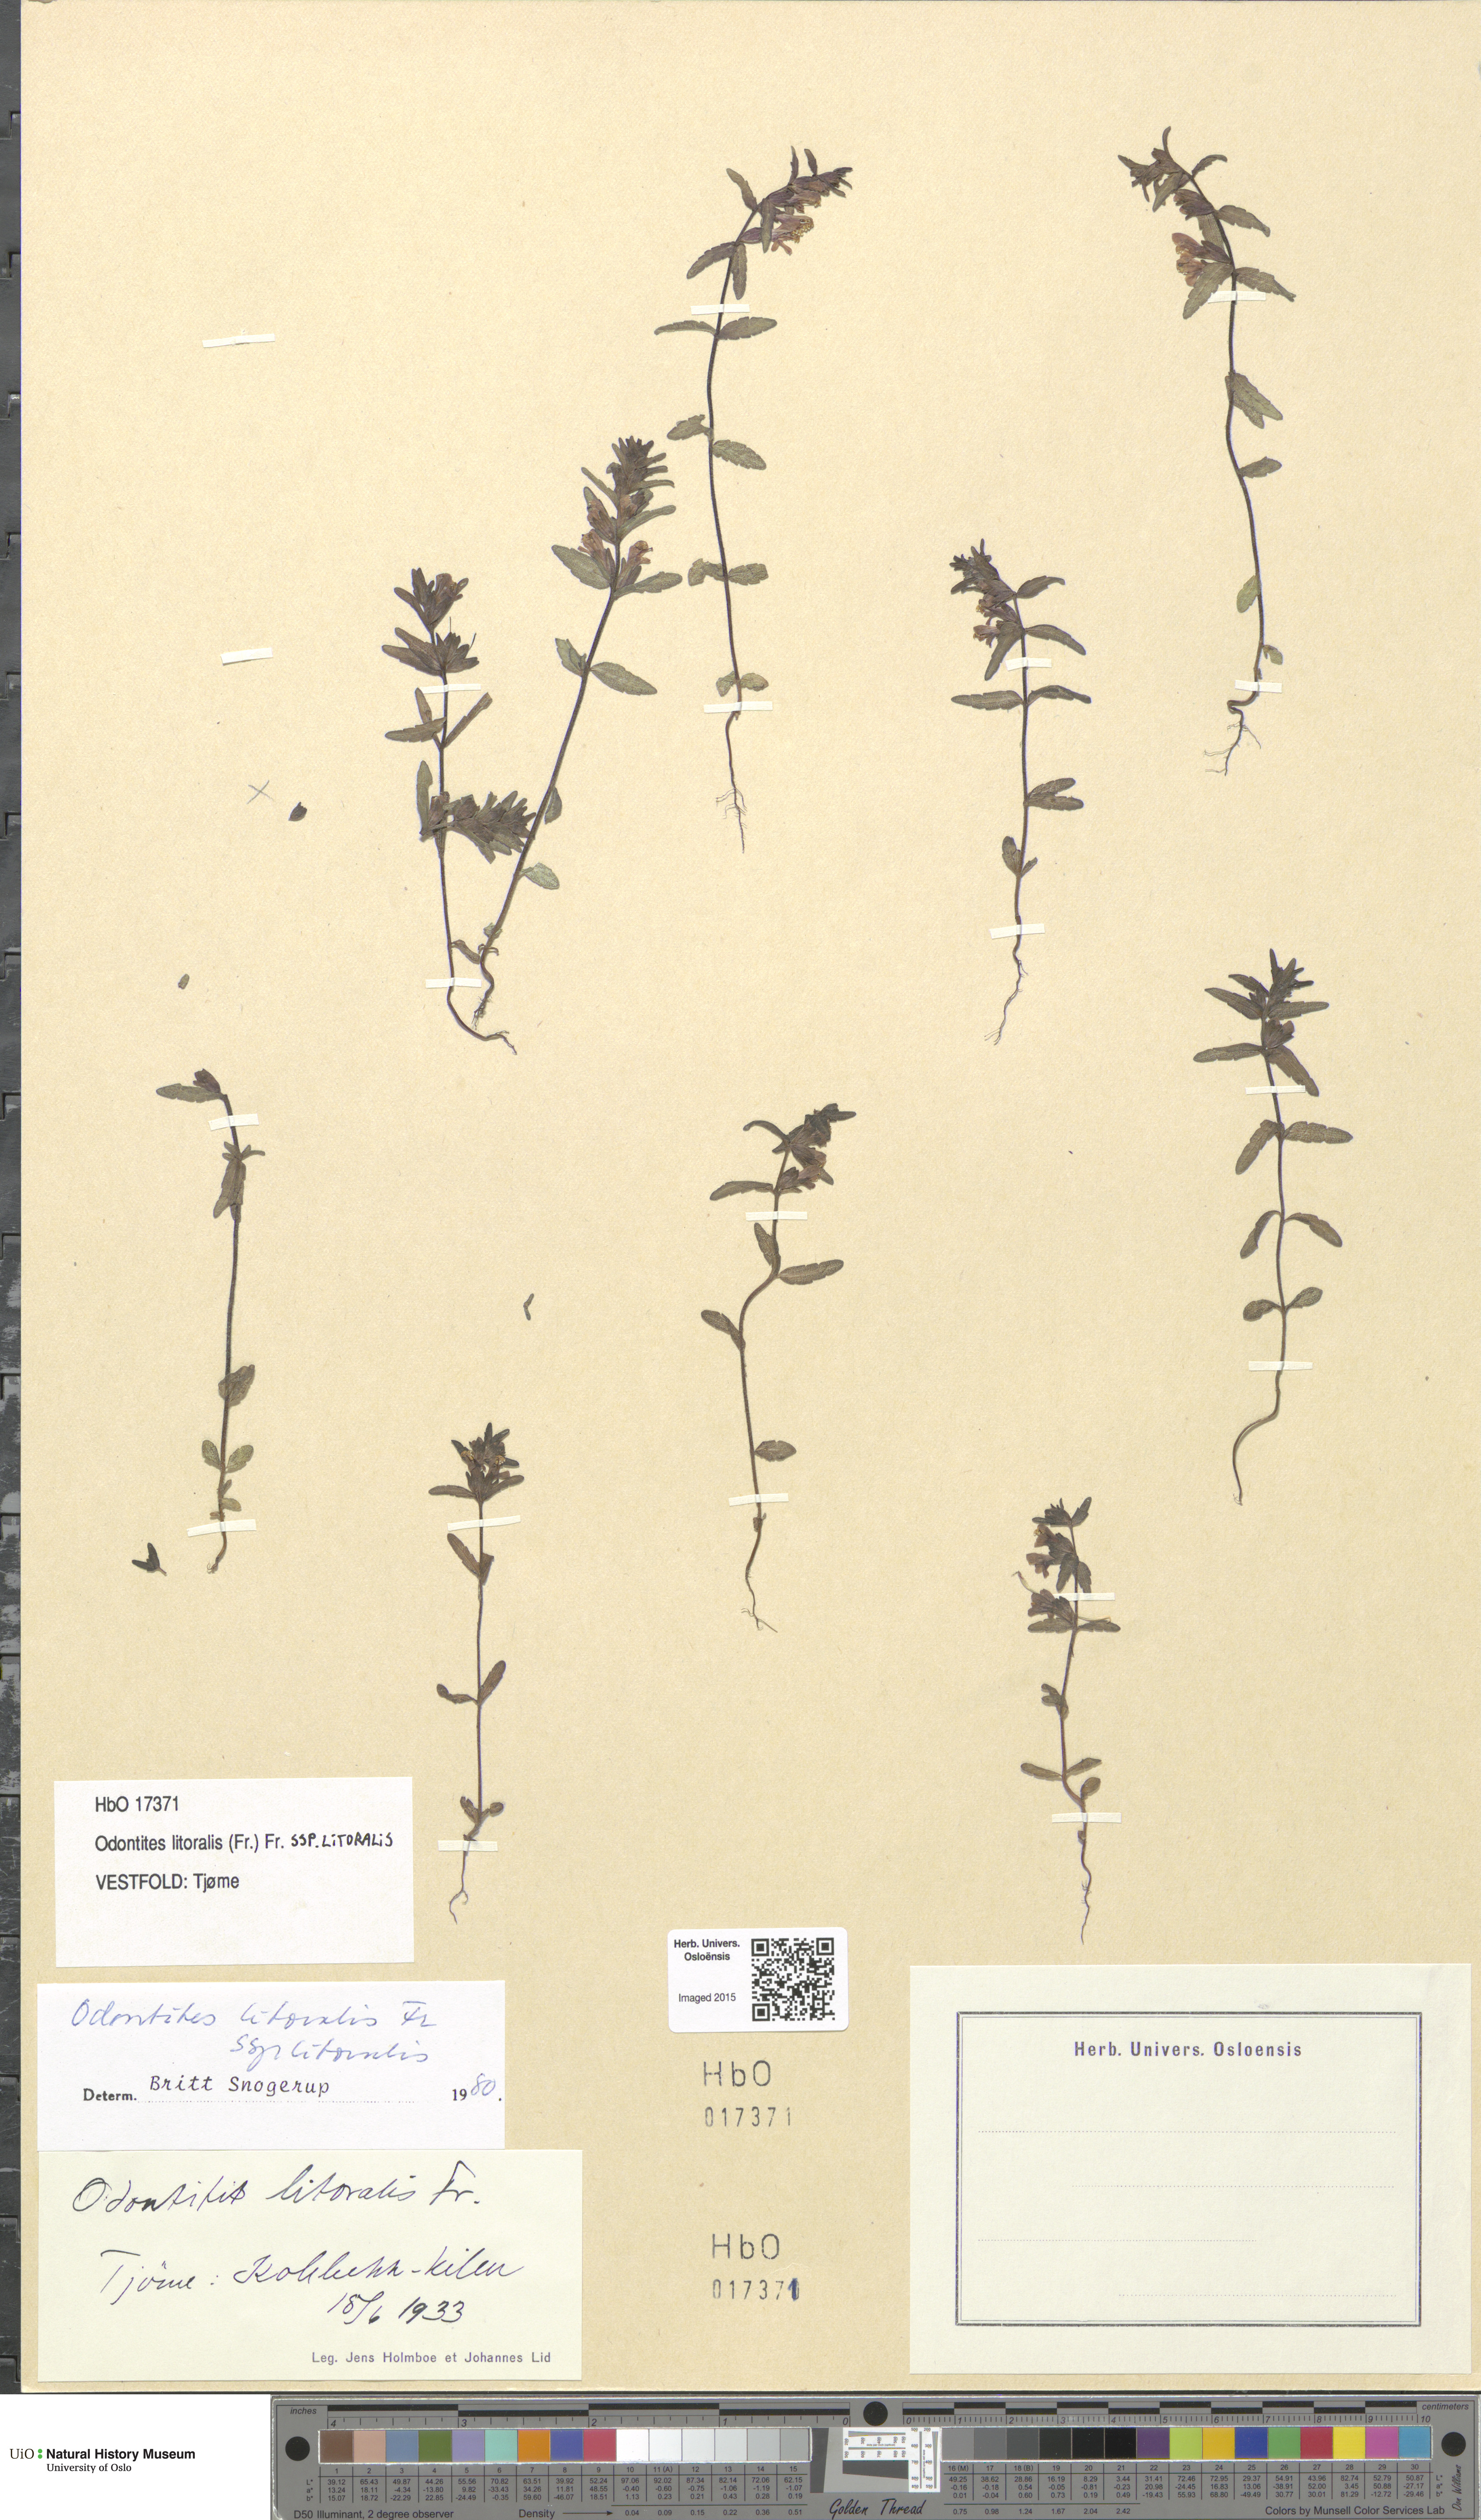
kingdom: Plantae
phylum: Tracheophyta
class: Magnoliopsida
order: Lamiales
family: Orobanchaceae
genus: Odontites
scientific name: Odontites litoralis
